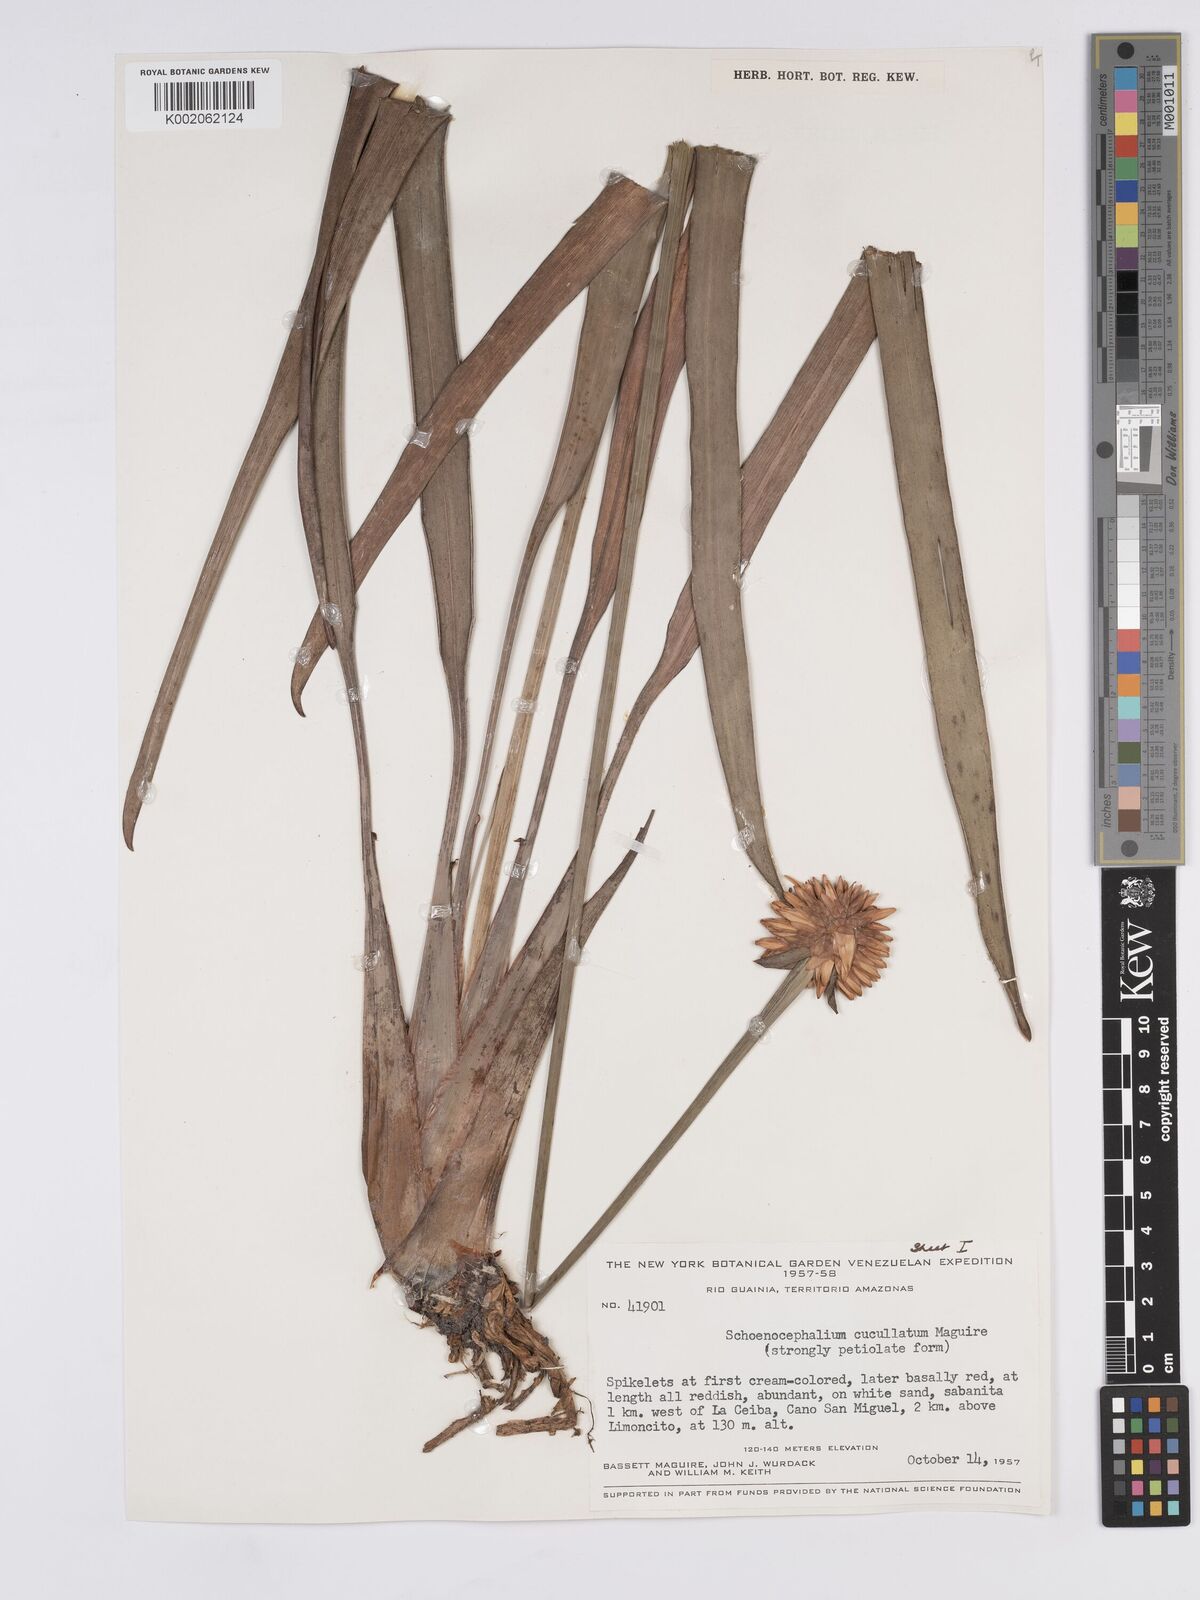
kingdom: Plantae
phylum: Tracheophyta
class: Liliopsida
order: Poales
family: Rapateaceae
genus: Schoenocephalium
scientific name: Schoenocephalium cucullatum
